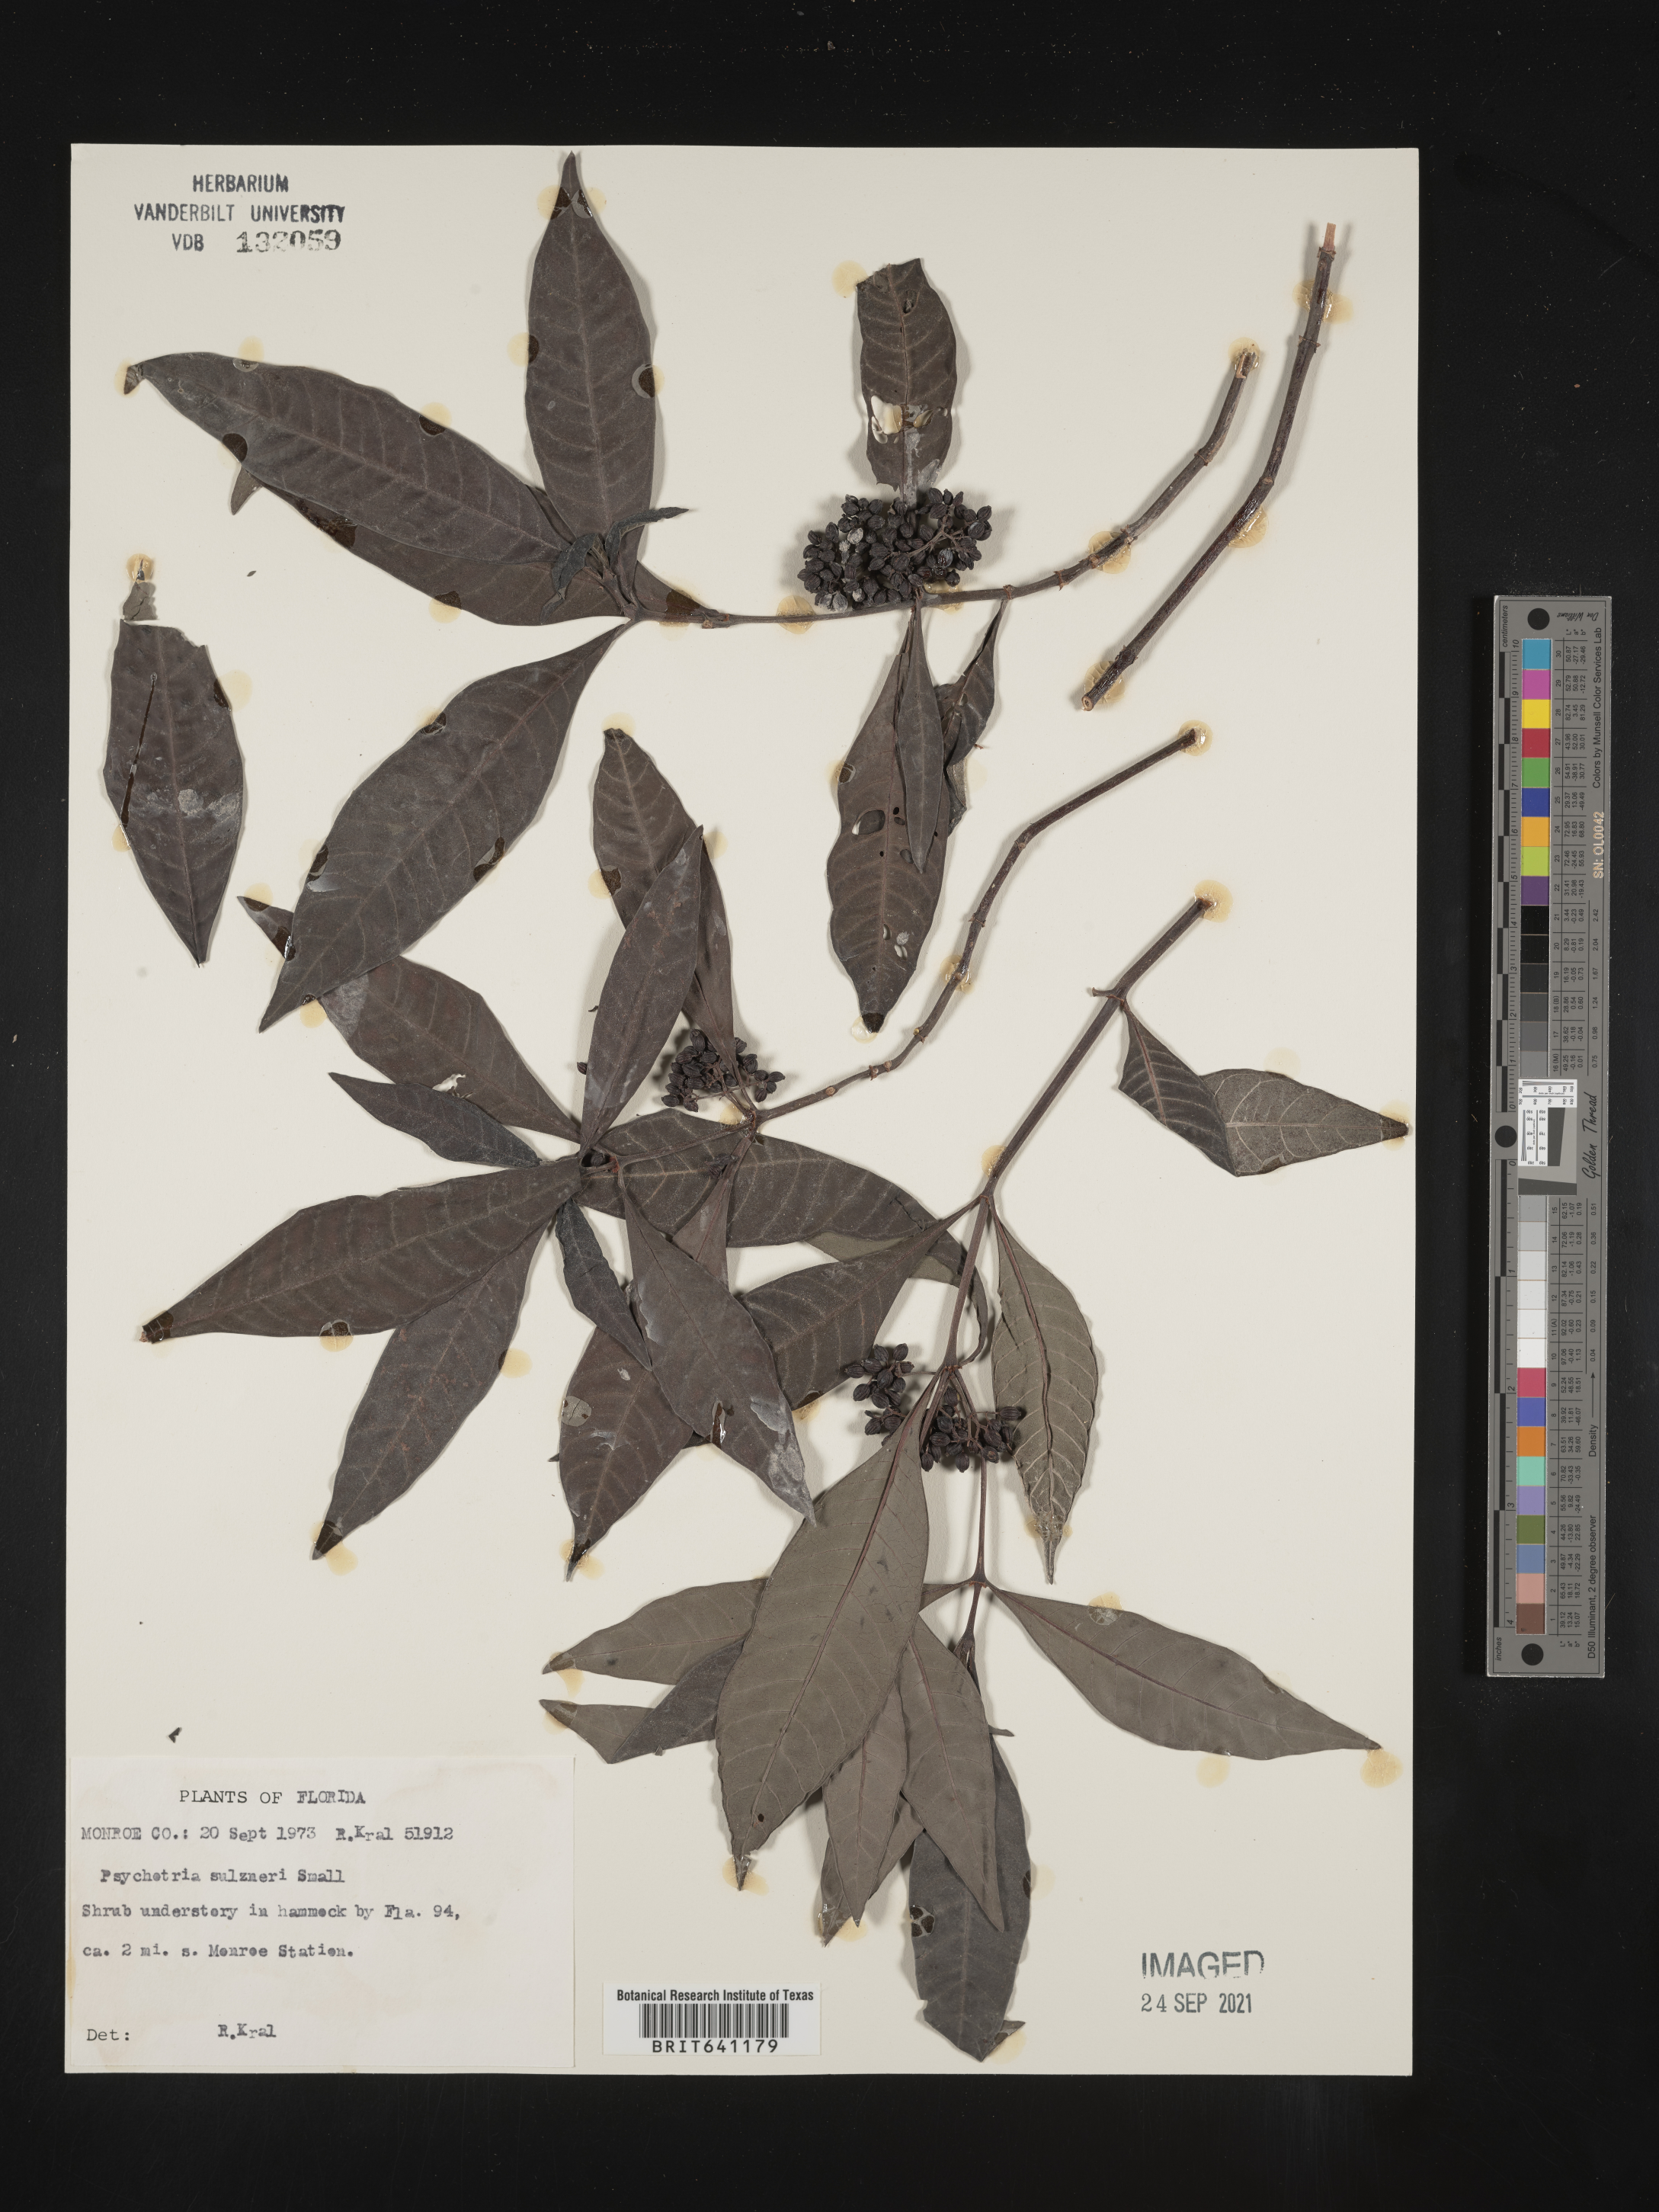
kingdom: Plantae
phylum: Tracheophyta
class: Magnoliopsida
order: Gentianales
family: Rubiaceae
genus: Psychotria
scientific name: Psychotria tenuifolia
